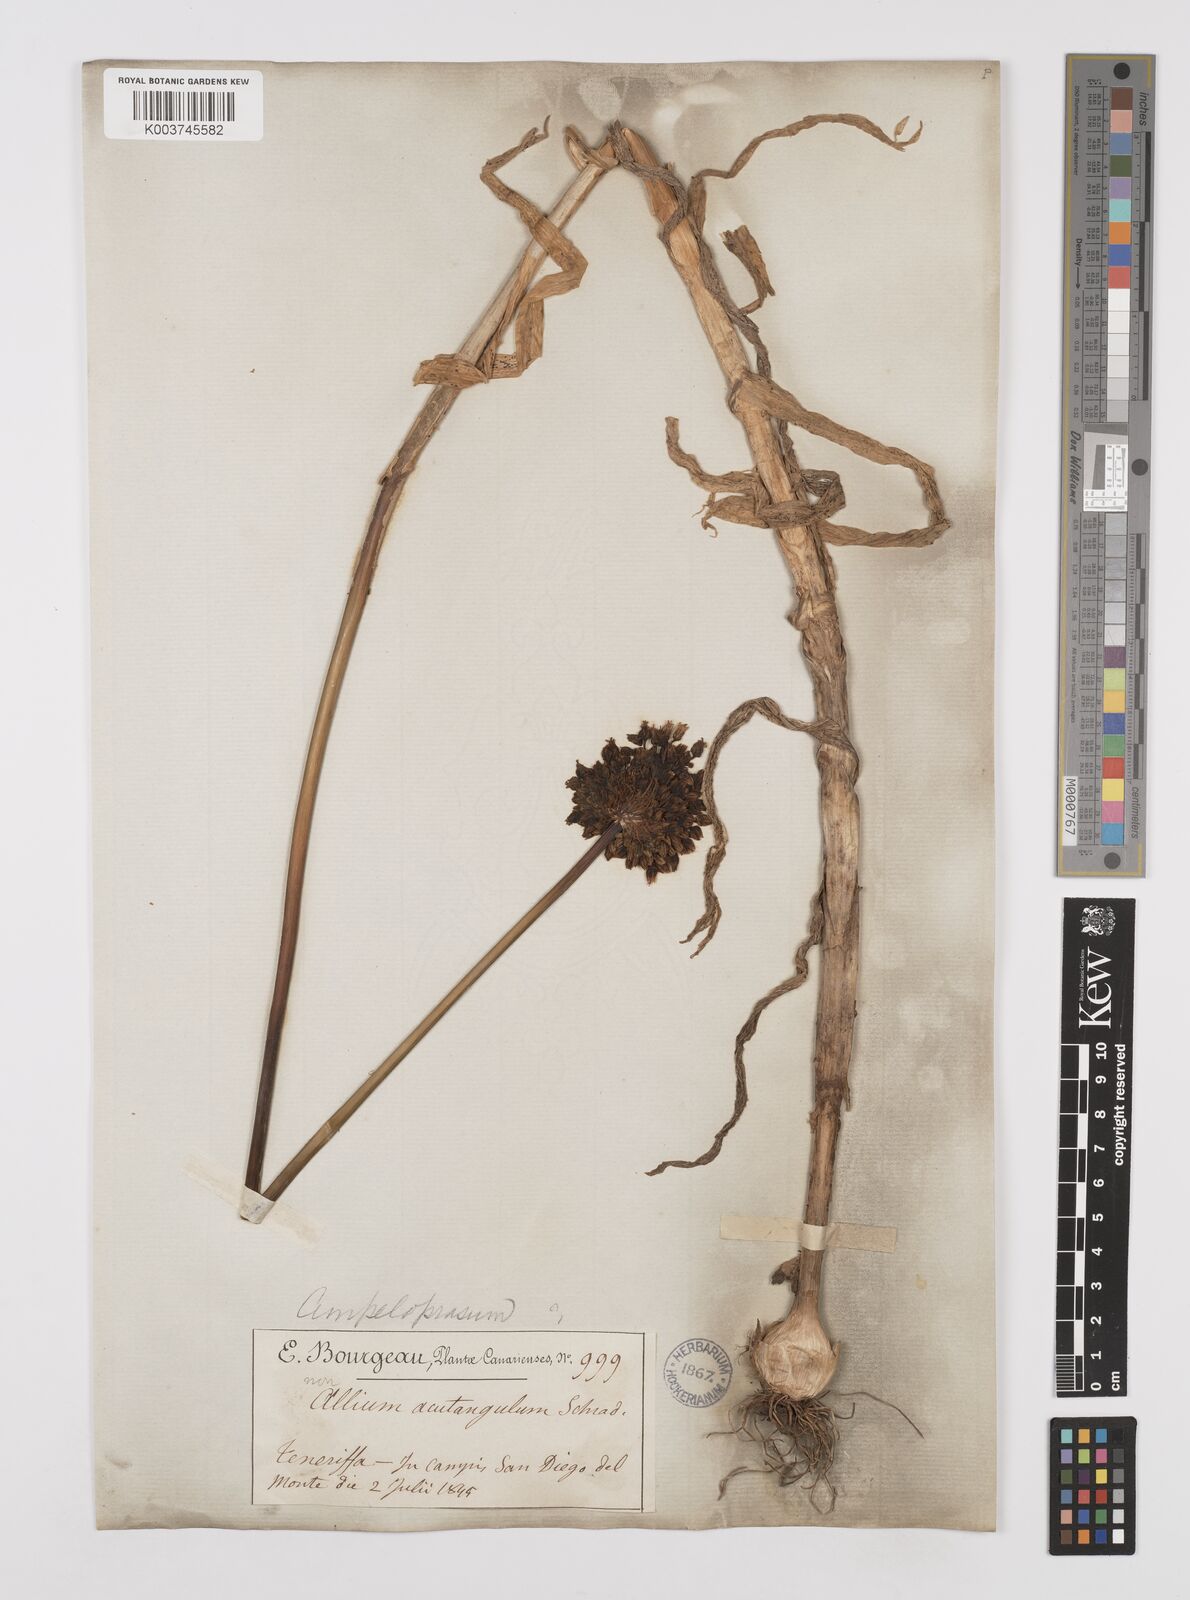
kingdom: Plantae
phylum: Tracheophyta
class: Liliopsida
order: Asparagales
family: Amaryllidaceae
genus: Allium
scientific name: Allium rotundum
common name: Sand leek
